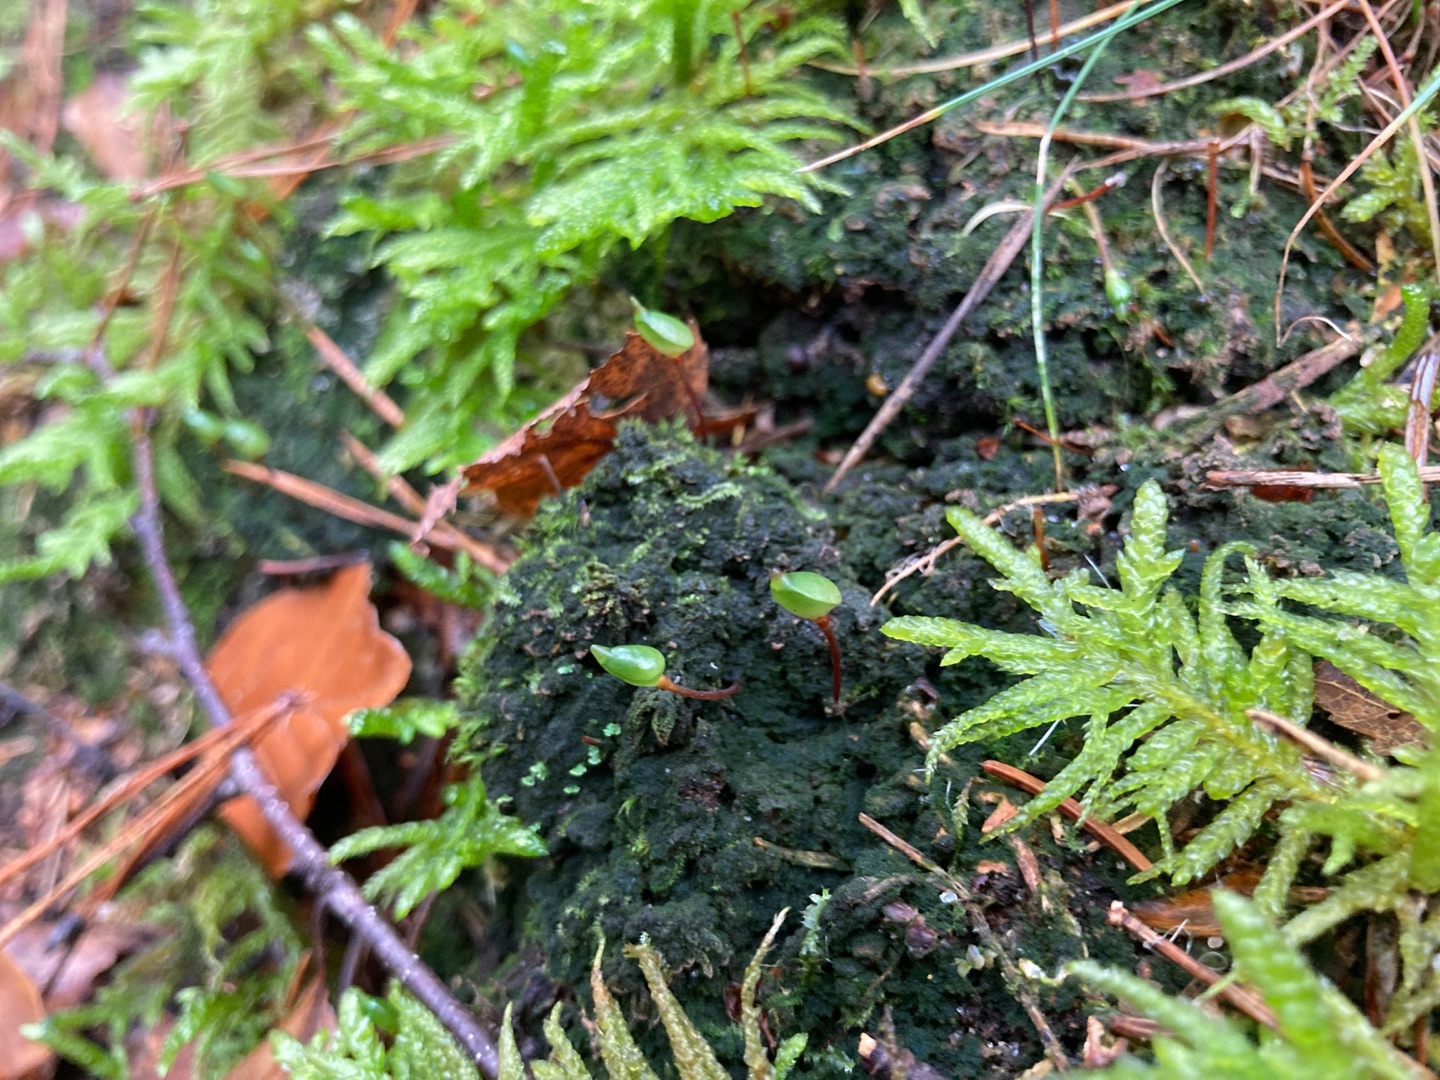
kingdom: Plantae
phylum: Bryophyta
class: Bryopsida
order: Buxbaumiales
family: Buxbaumiaceae
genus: Buxbaumia
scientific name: Buxbaumia aphylla
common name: Rundkapslet buxbaumia
